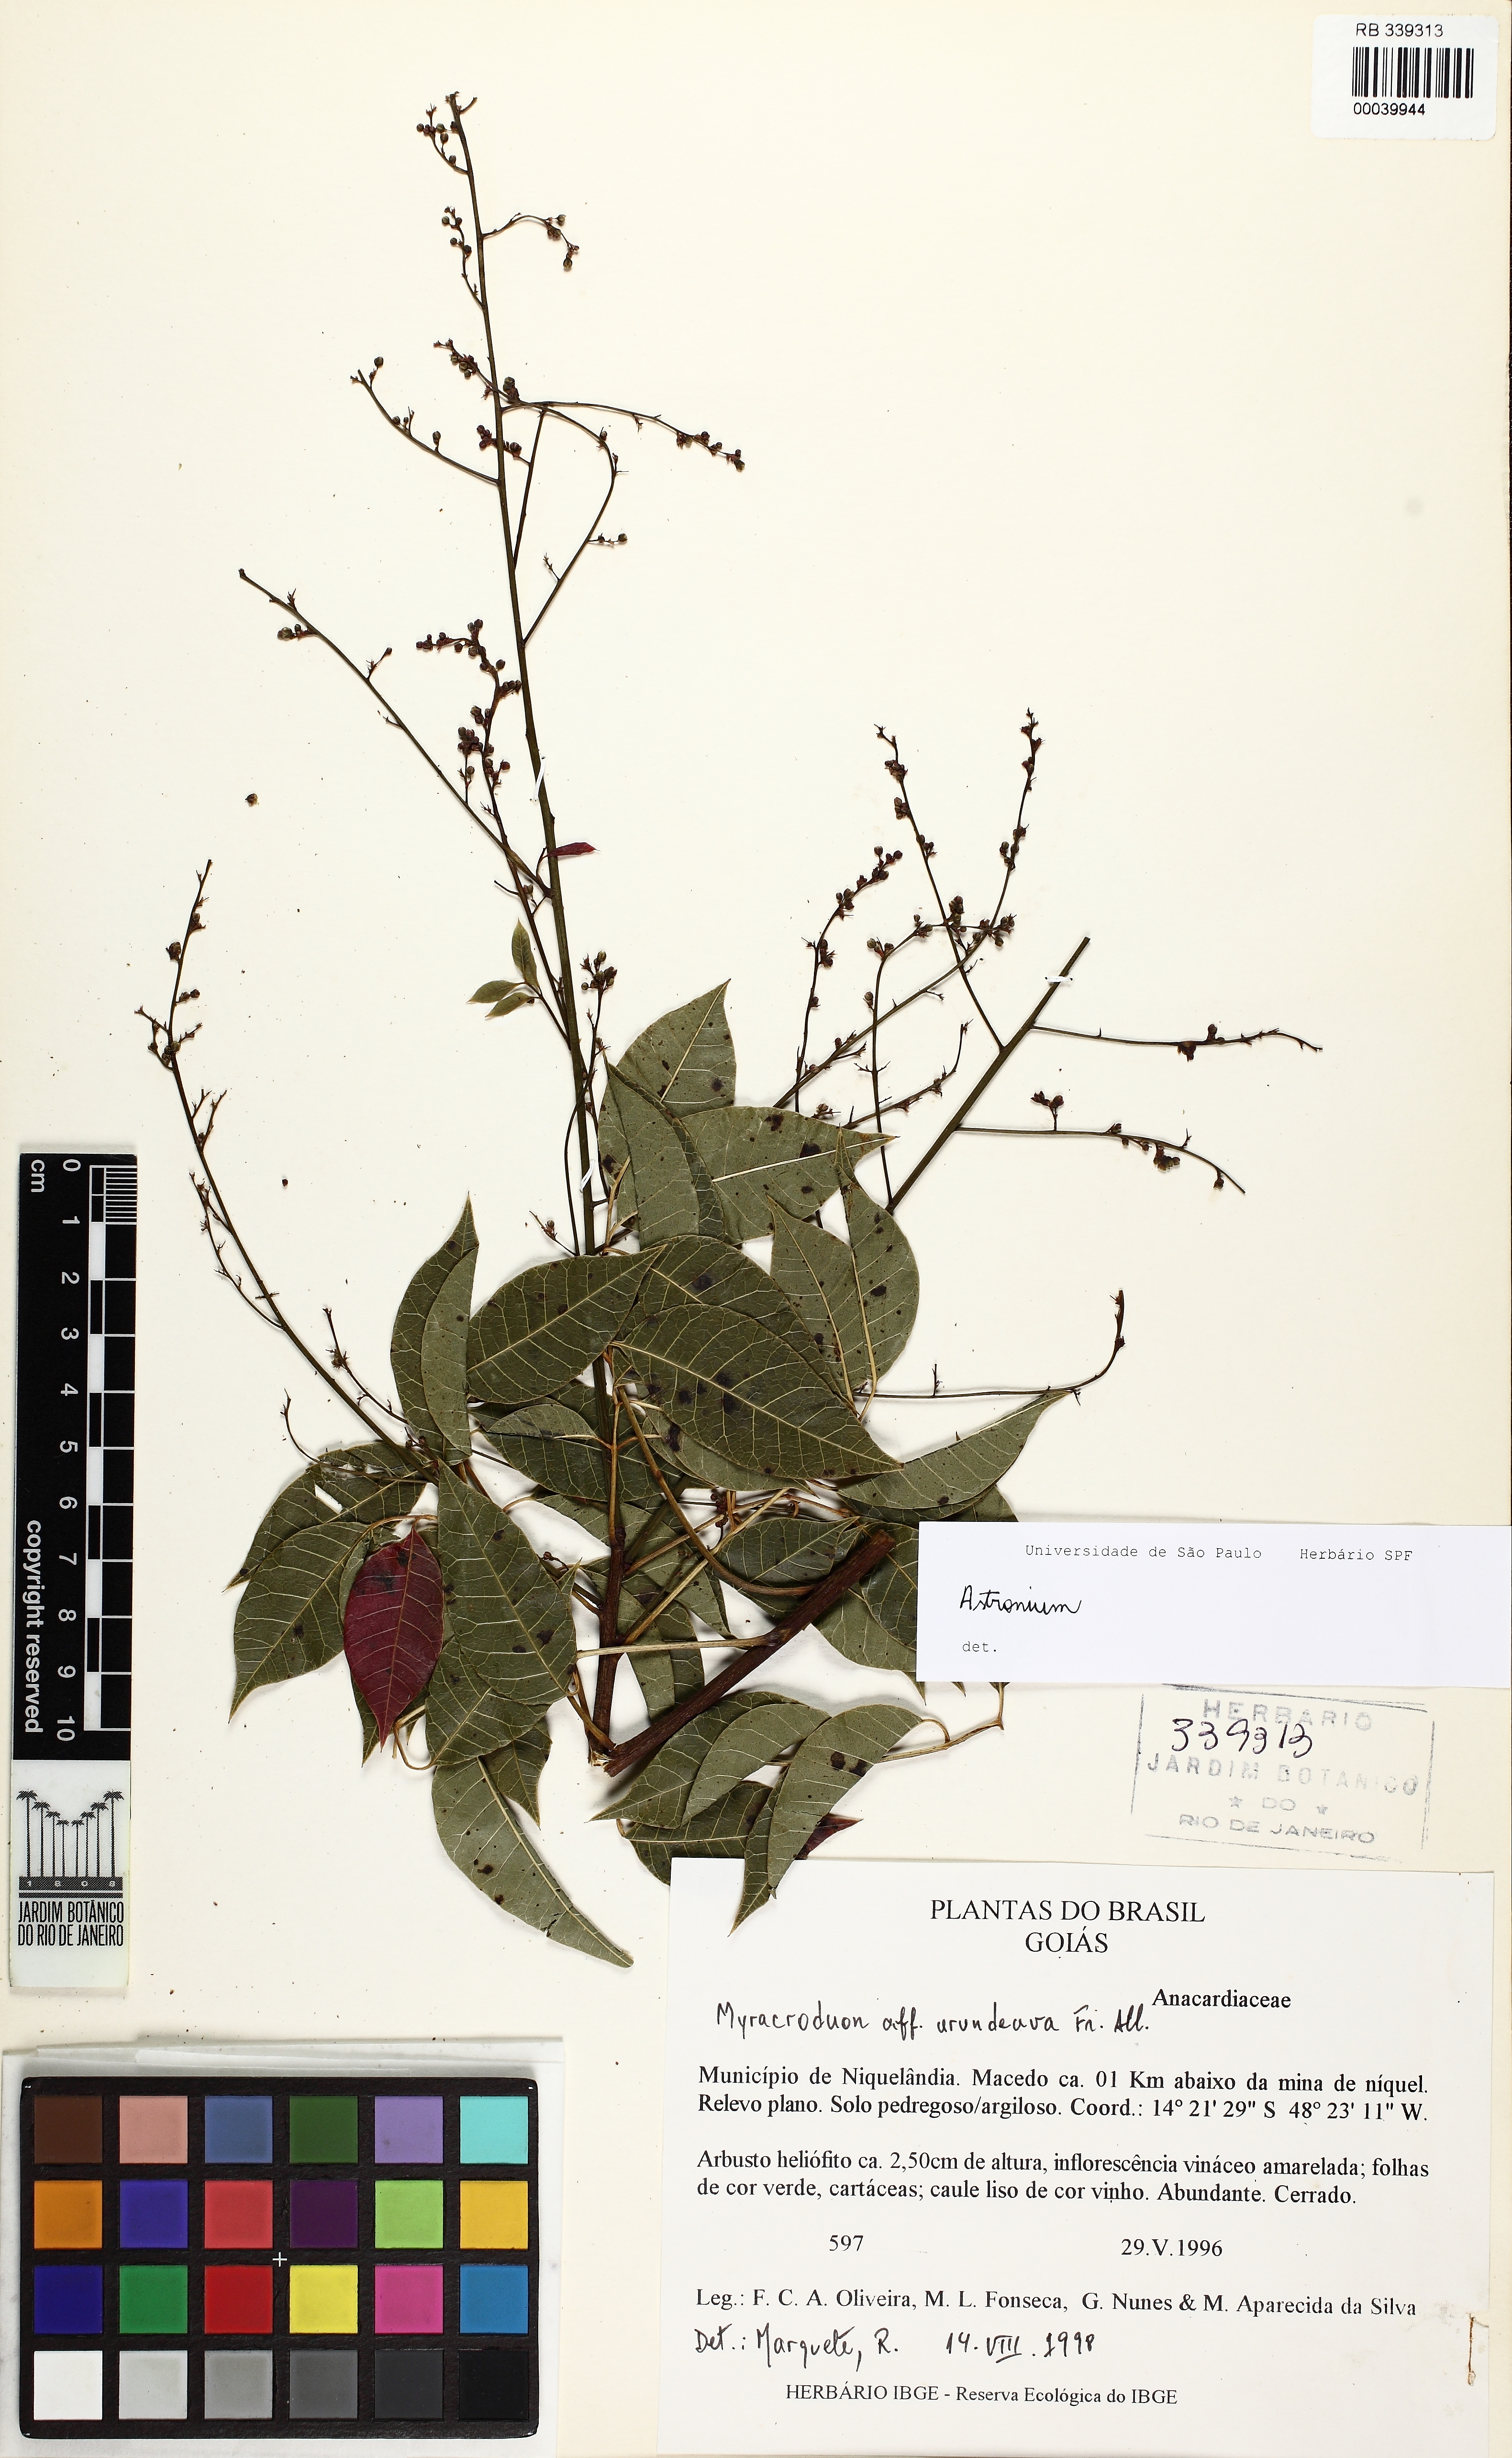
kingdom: Plantae
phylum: Tracheophyta
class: Magnoliopsida
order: Sapindales
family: Anacardiaceae
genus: Astronium
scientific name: Astronium pumilum
